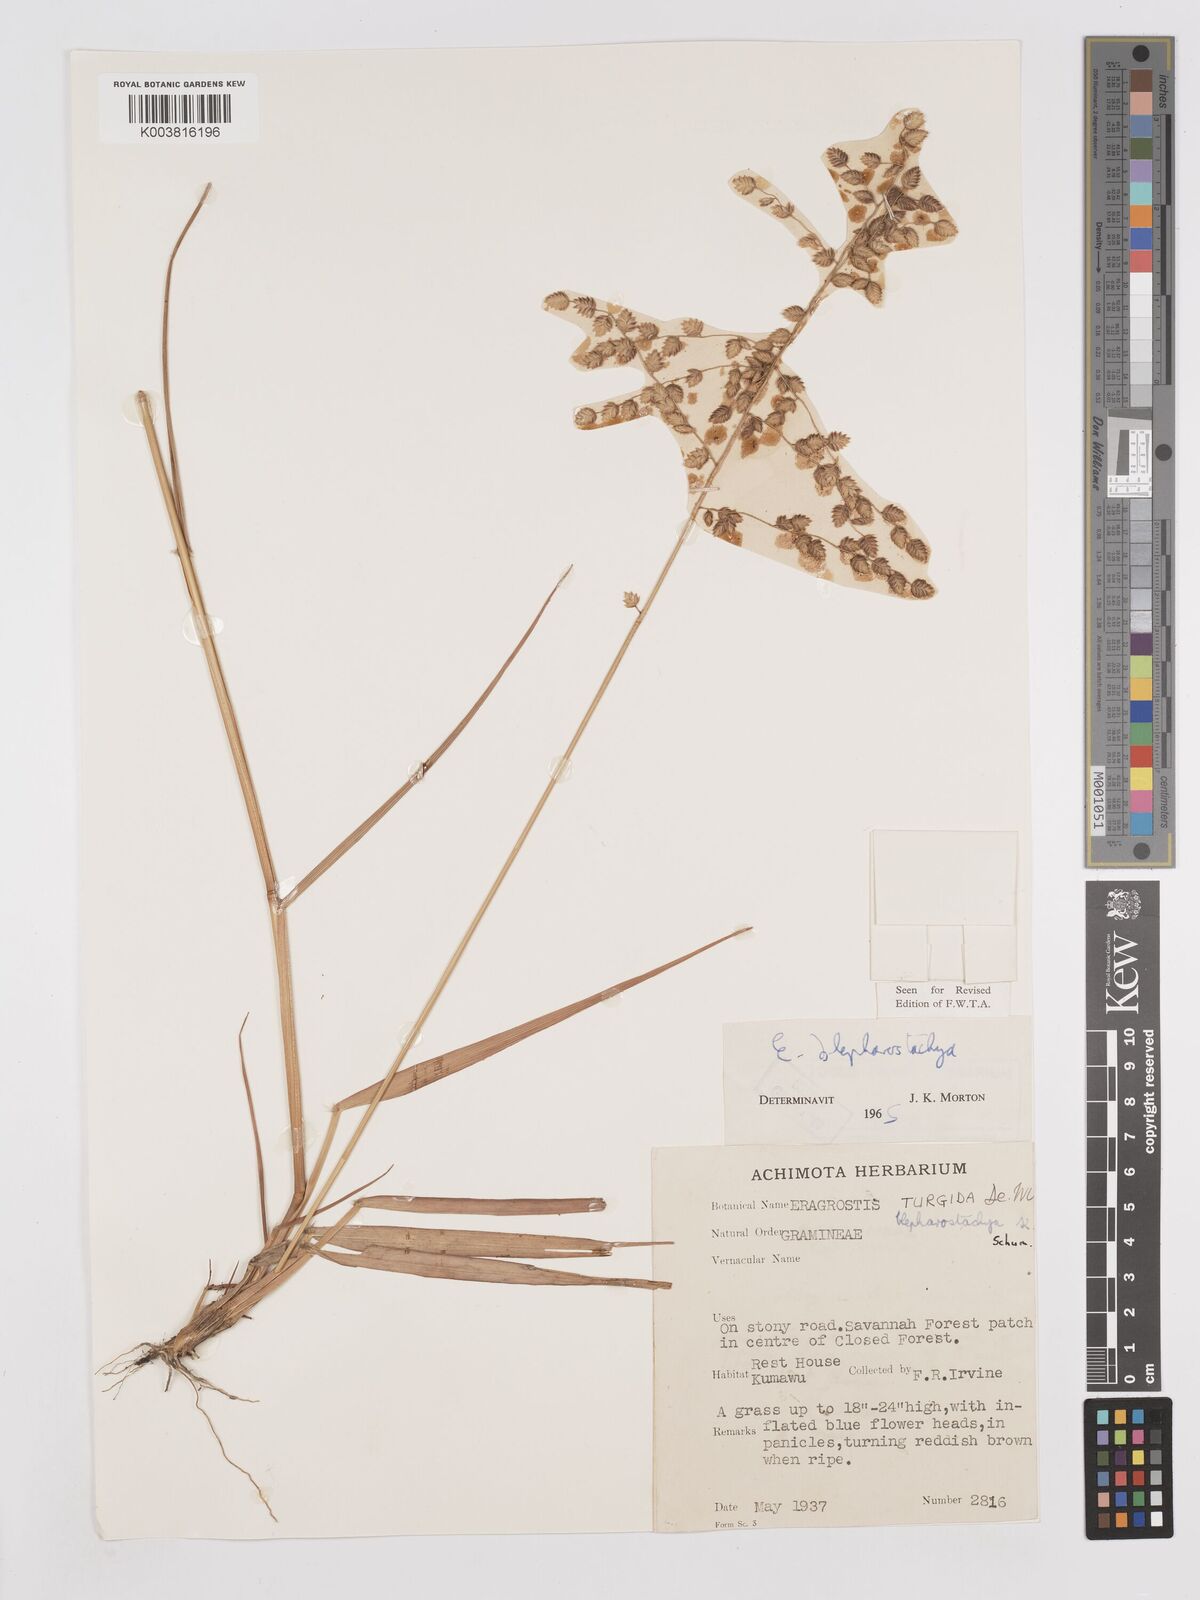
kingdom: Plantae
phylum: Tracheophyta
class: Liliopsida
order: Poales
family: Poaceae
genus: Eragrostis
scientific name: Eragrostis blepharostachya
